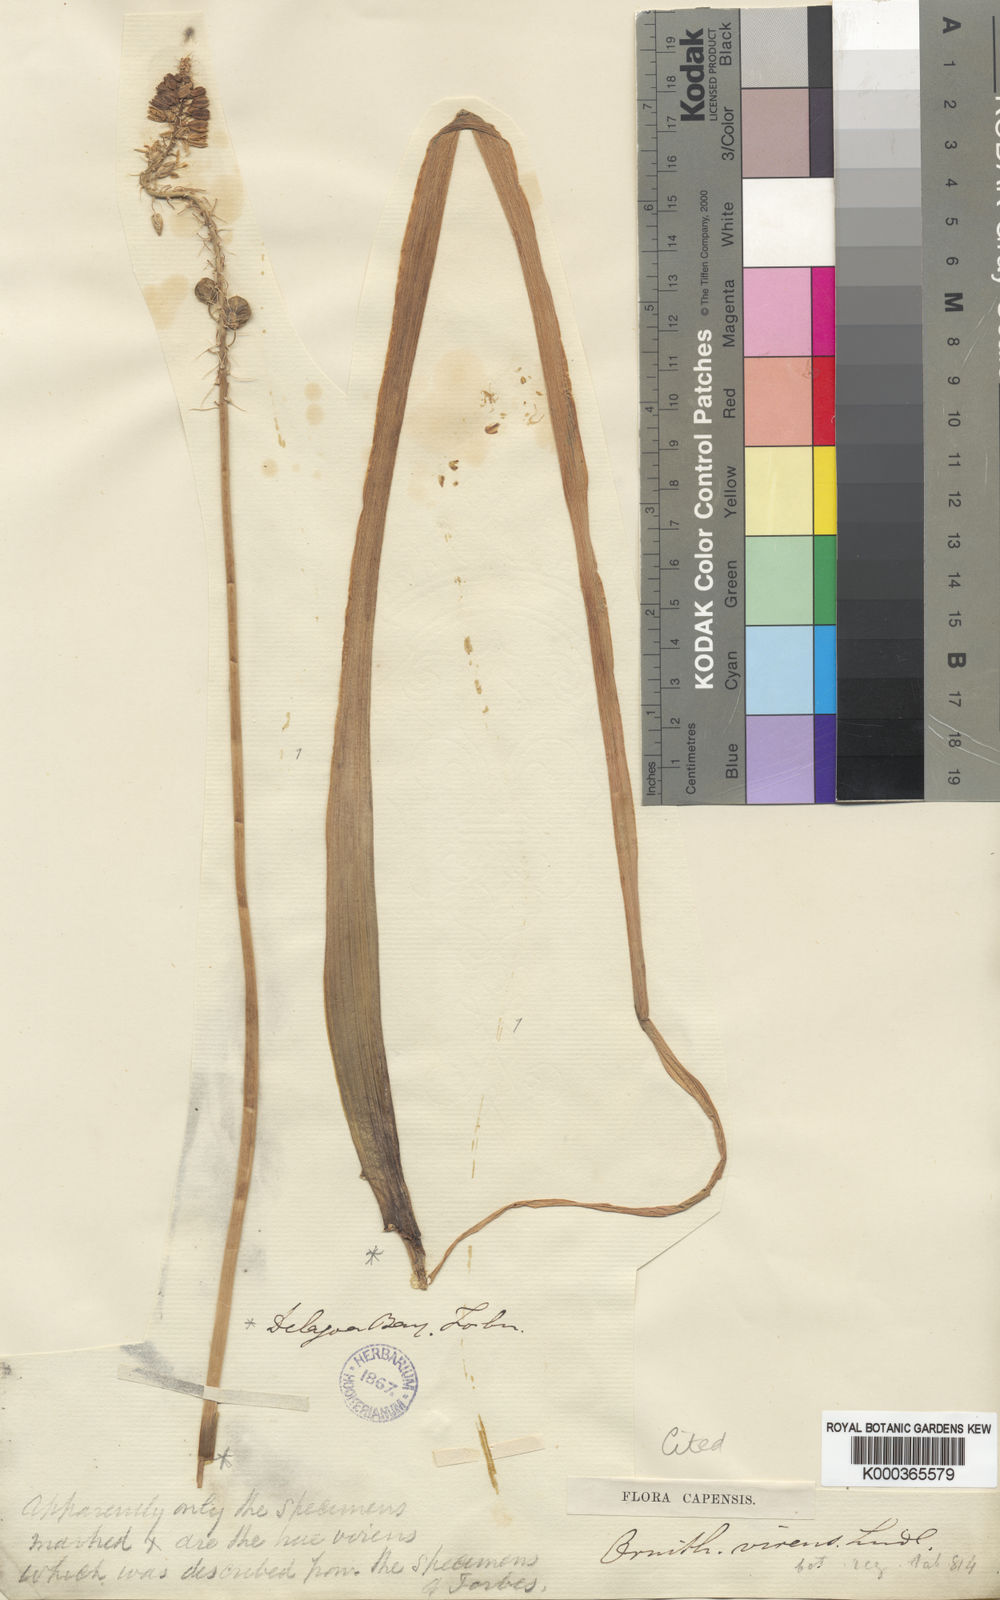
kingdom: Plantae
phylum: Tracheophyta
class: Liliopsida
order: Asparagales
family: Asparagaceae
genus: Ornithogalum
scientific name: Ornithogalum
